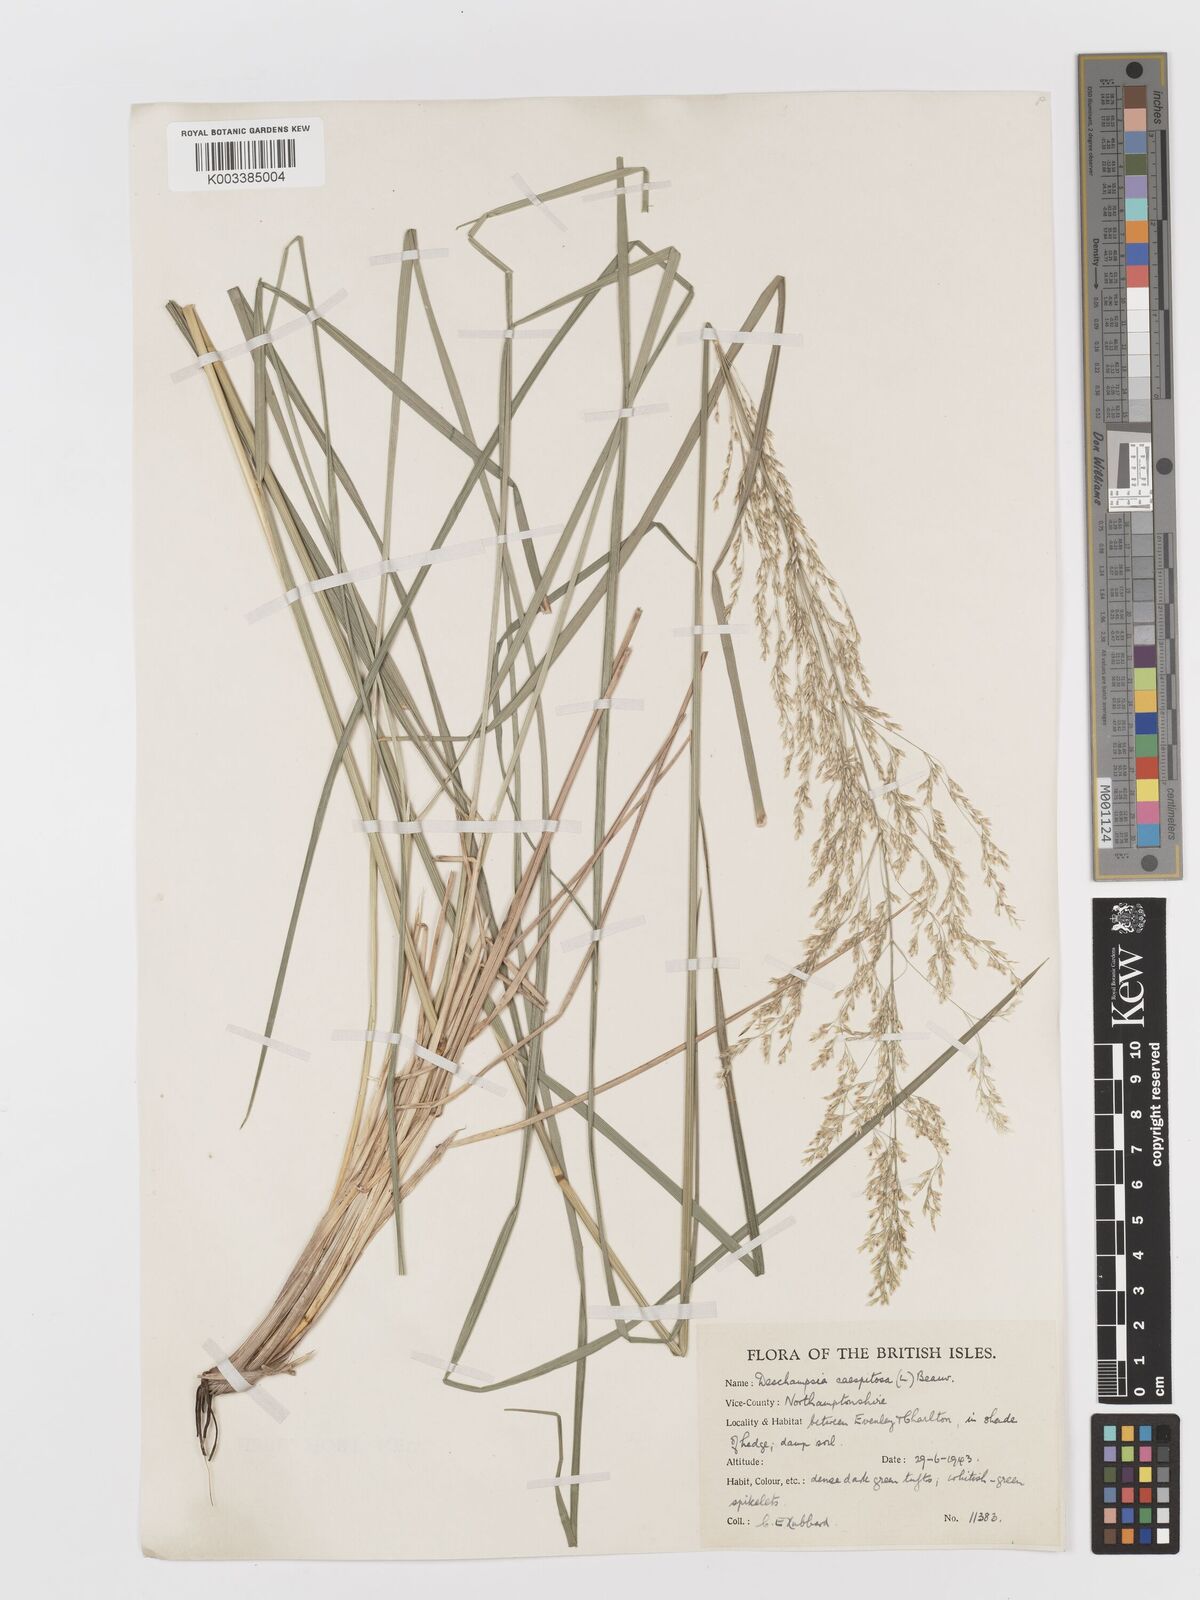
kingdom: Plantae
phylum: Tracheophyta
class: Liliopsida
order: Poales
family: Poaceae
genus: Deschampsia
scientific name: Deschampsia cespitosa
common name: Tufted hair-grass
